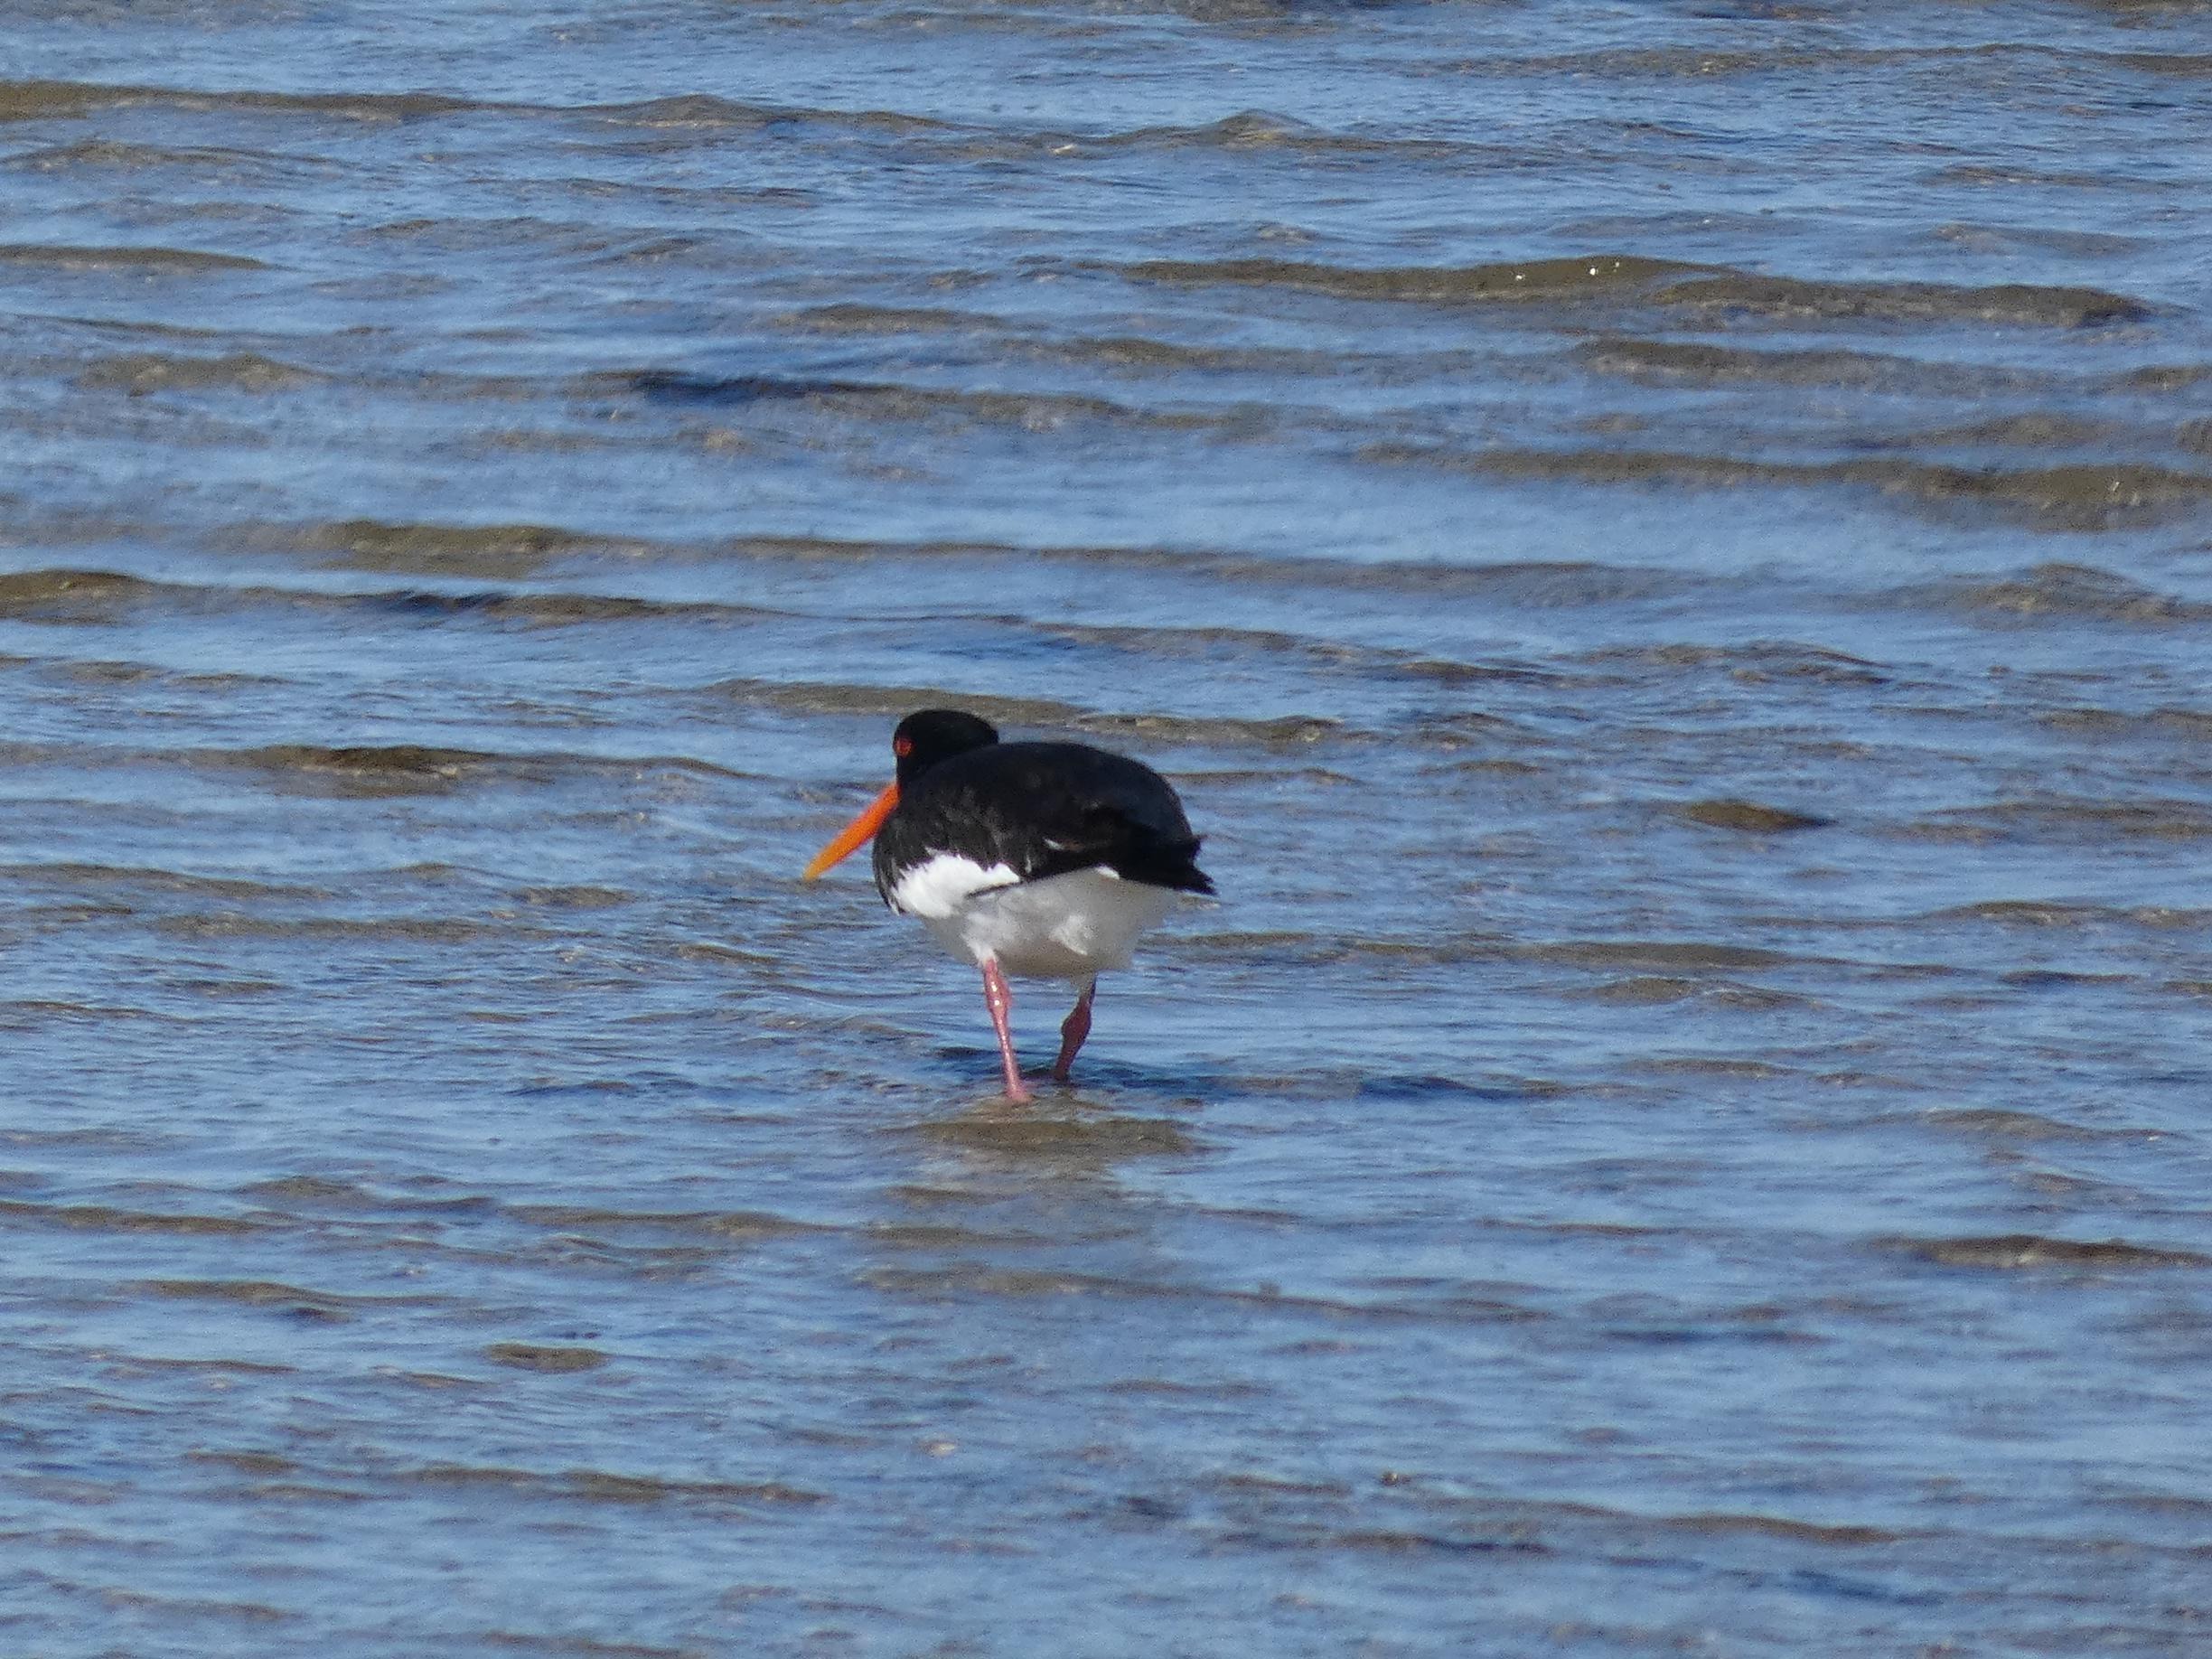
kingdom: Animalia
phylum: Chordata
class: Aves
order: Charadriiformes
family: Haematopodidae
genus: Haematopus
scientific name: Haematopus ostralegus
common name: Strandskade
